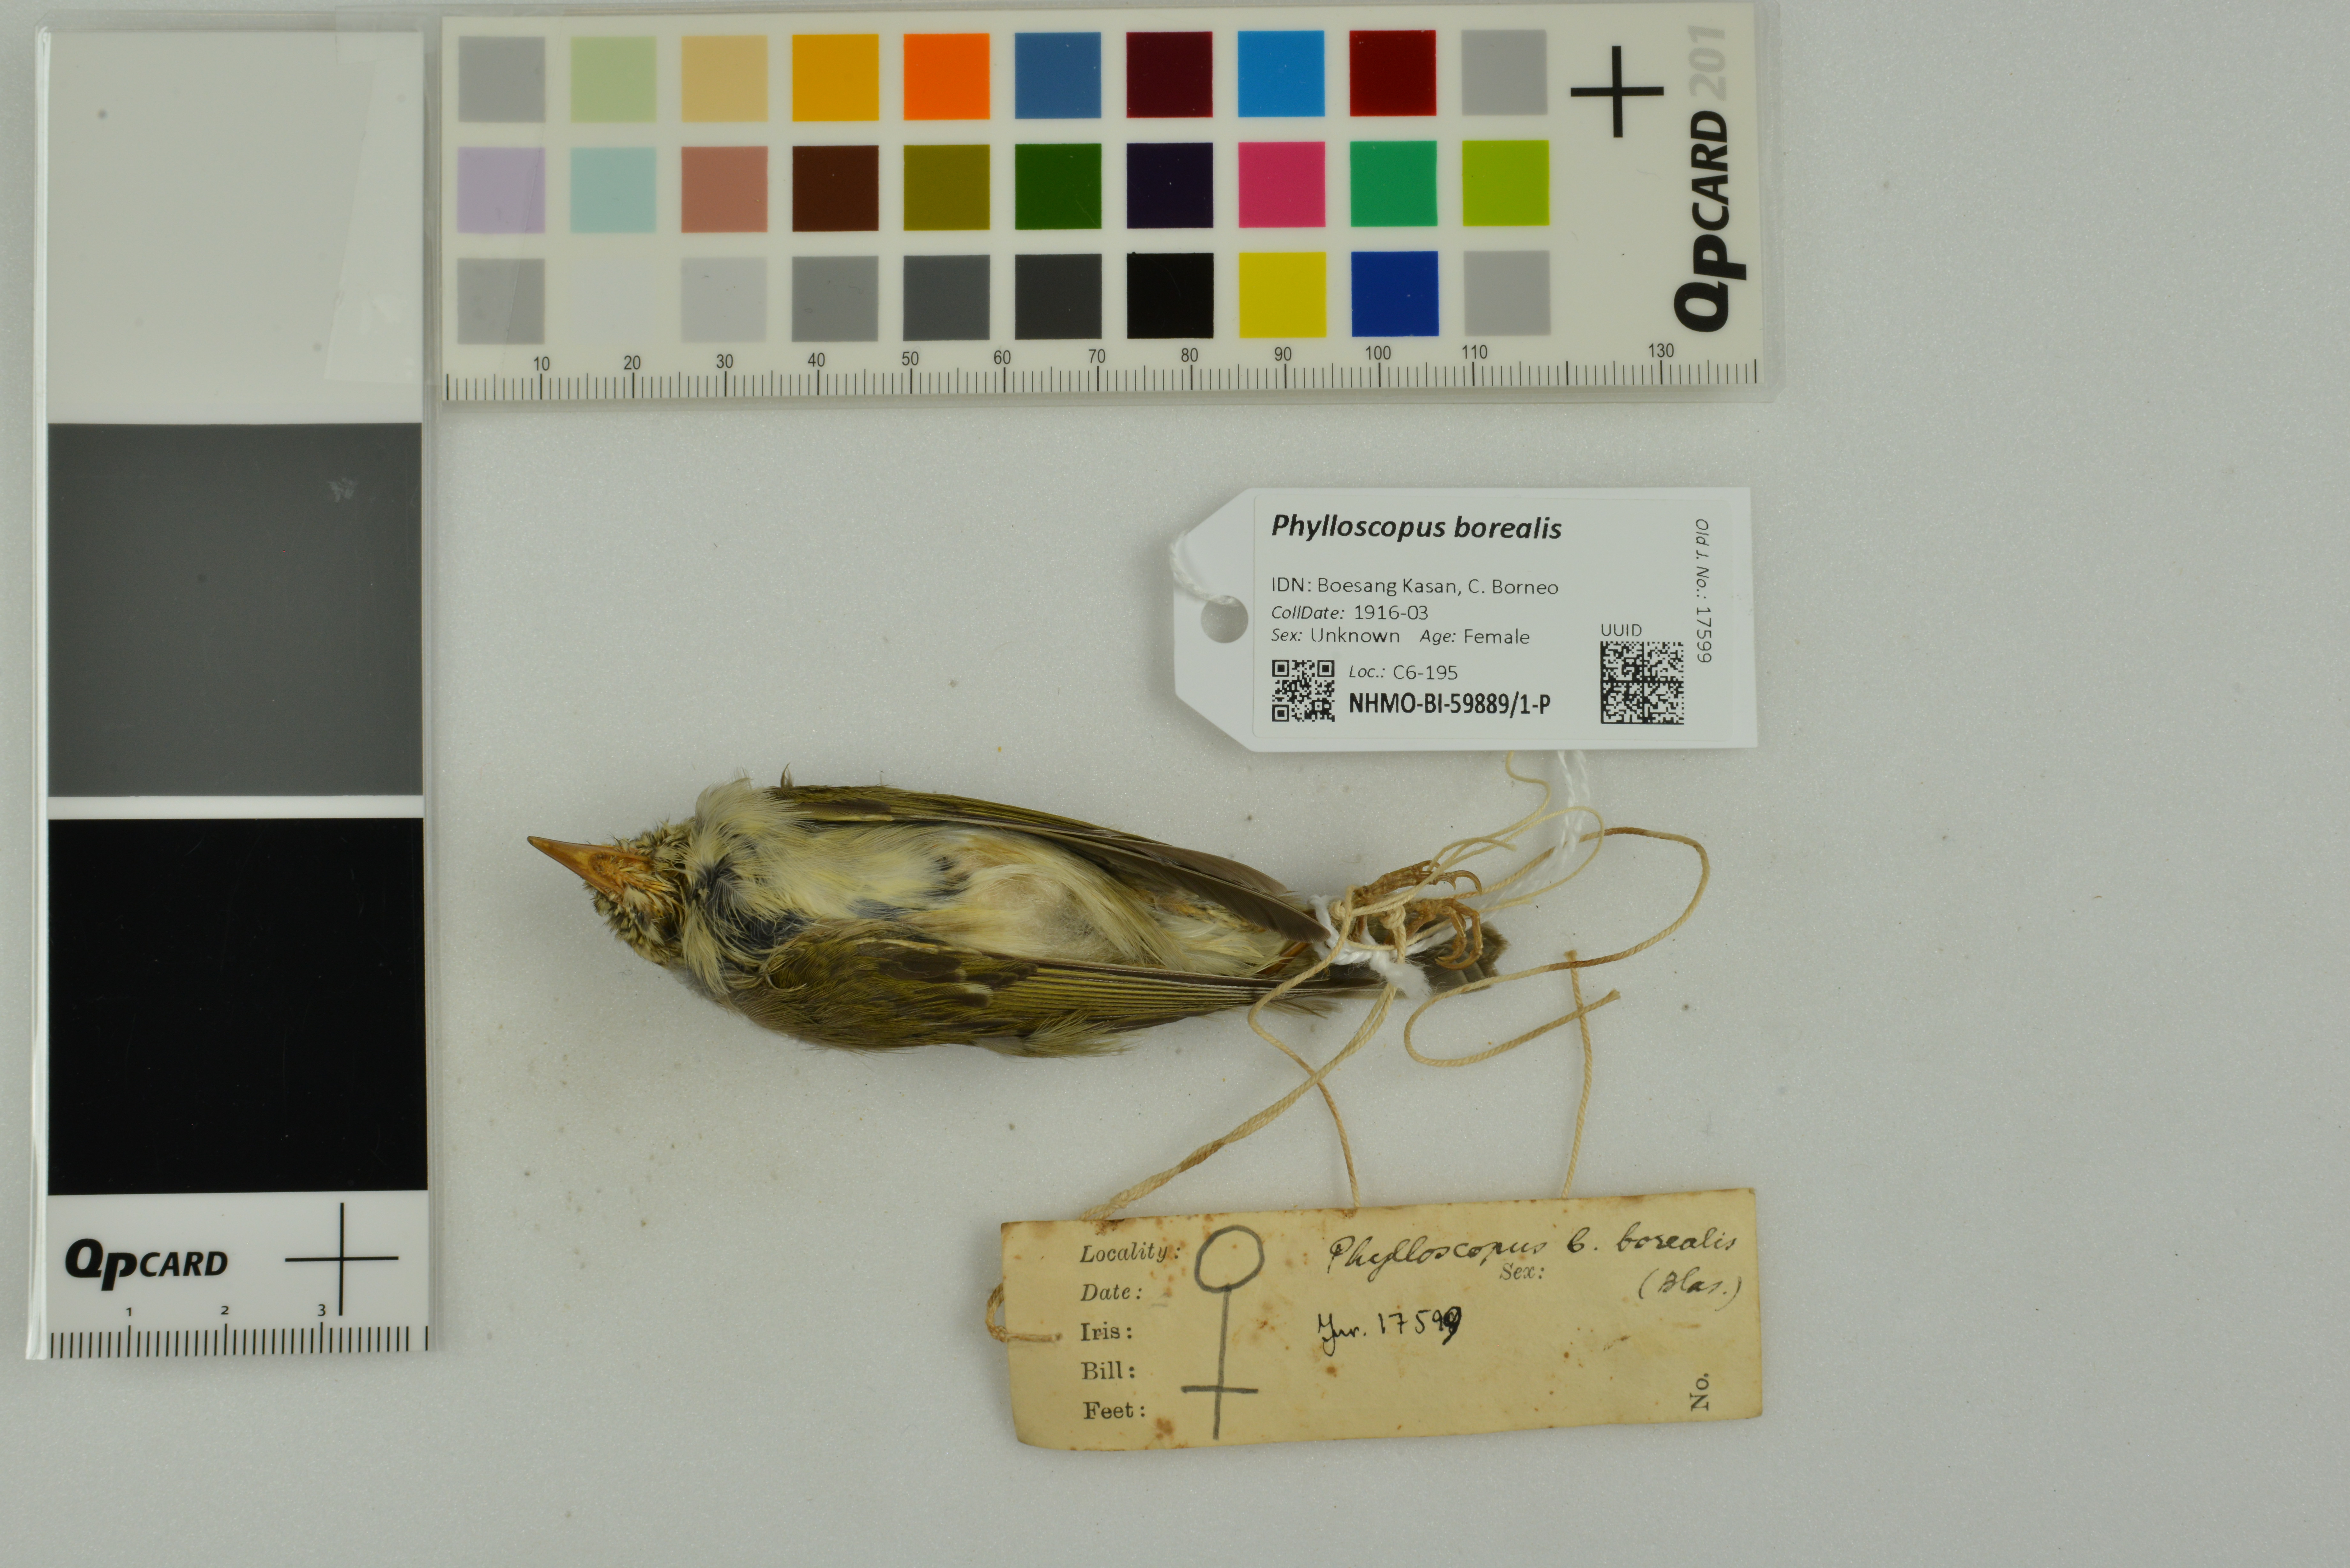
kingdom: Animalia
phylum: Chordata
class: Aves
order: Passeriformes
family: Phylloscopidae
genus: Phylloscopus
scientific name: Phylloscopus borealis
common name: Arctic warbler
